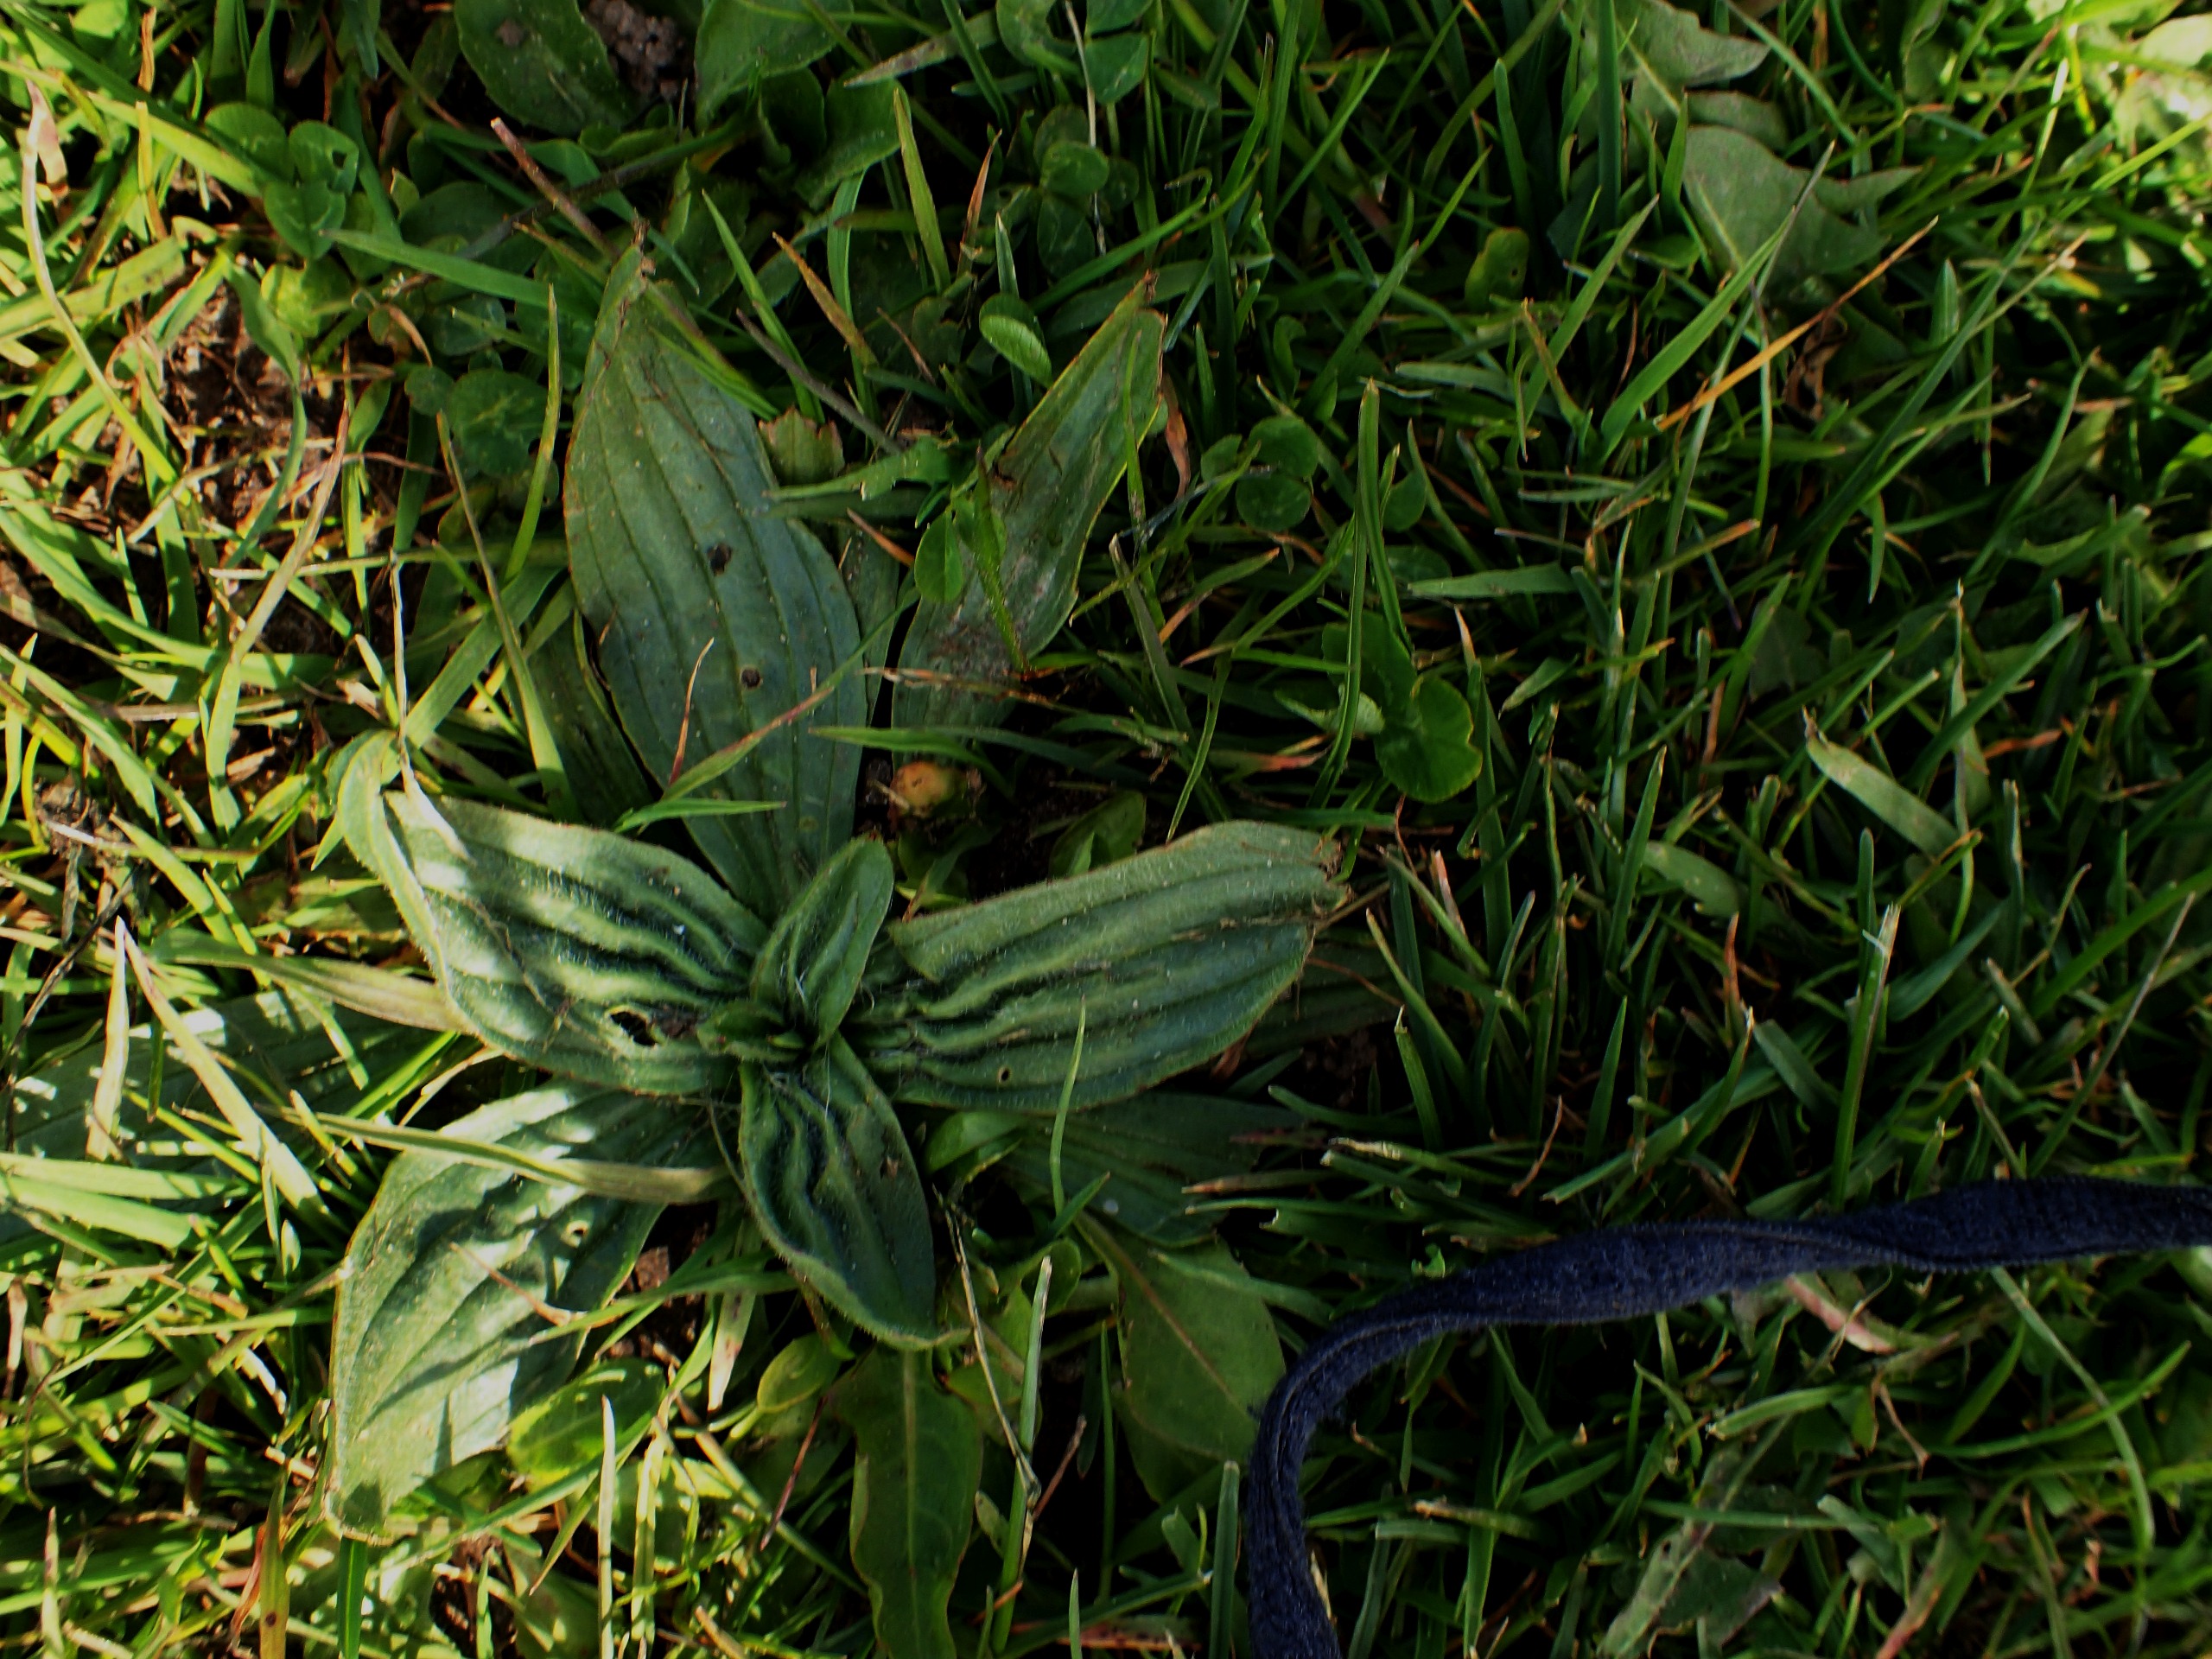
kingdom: Plantae
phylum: Tracheophyta
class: Magnoliopsida
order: Lamiales
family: Plantaginaceae
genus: Plantago
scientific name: Plantago lanceolata
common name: Lancet-vejbred
